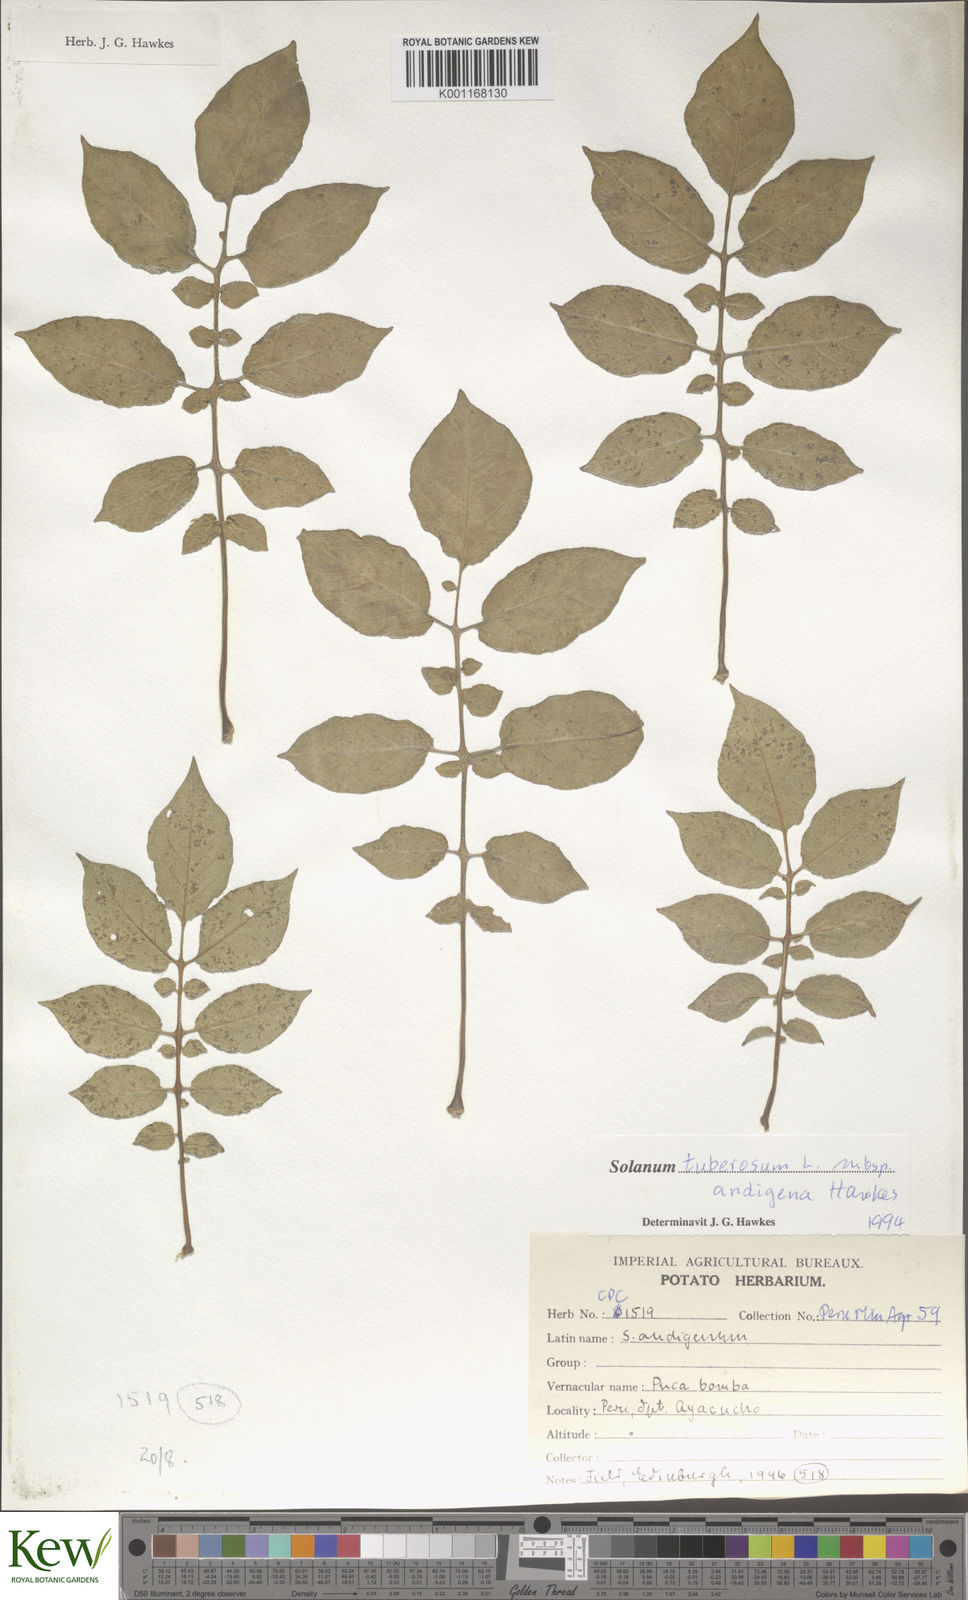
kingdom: Plantae
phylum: Tracheophyta
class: Magnoliopsida
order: Solanales
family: Solanaceae
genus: Solanum
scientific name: Solanum tuberosum
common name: Potato
